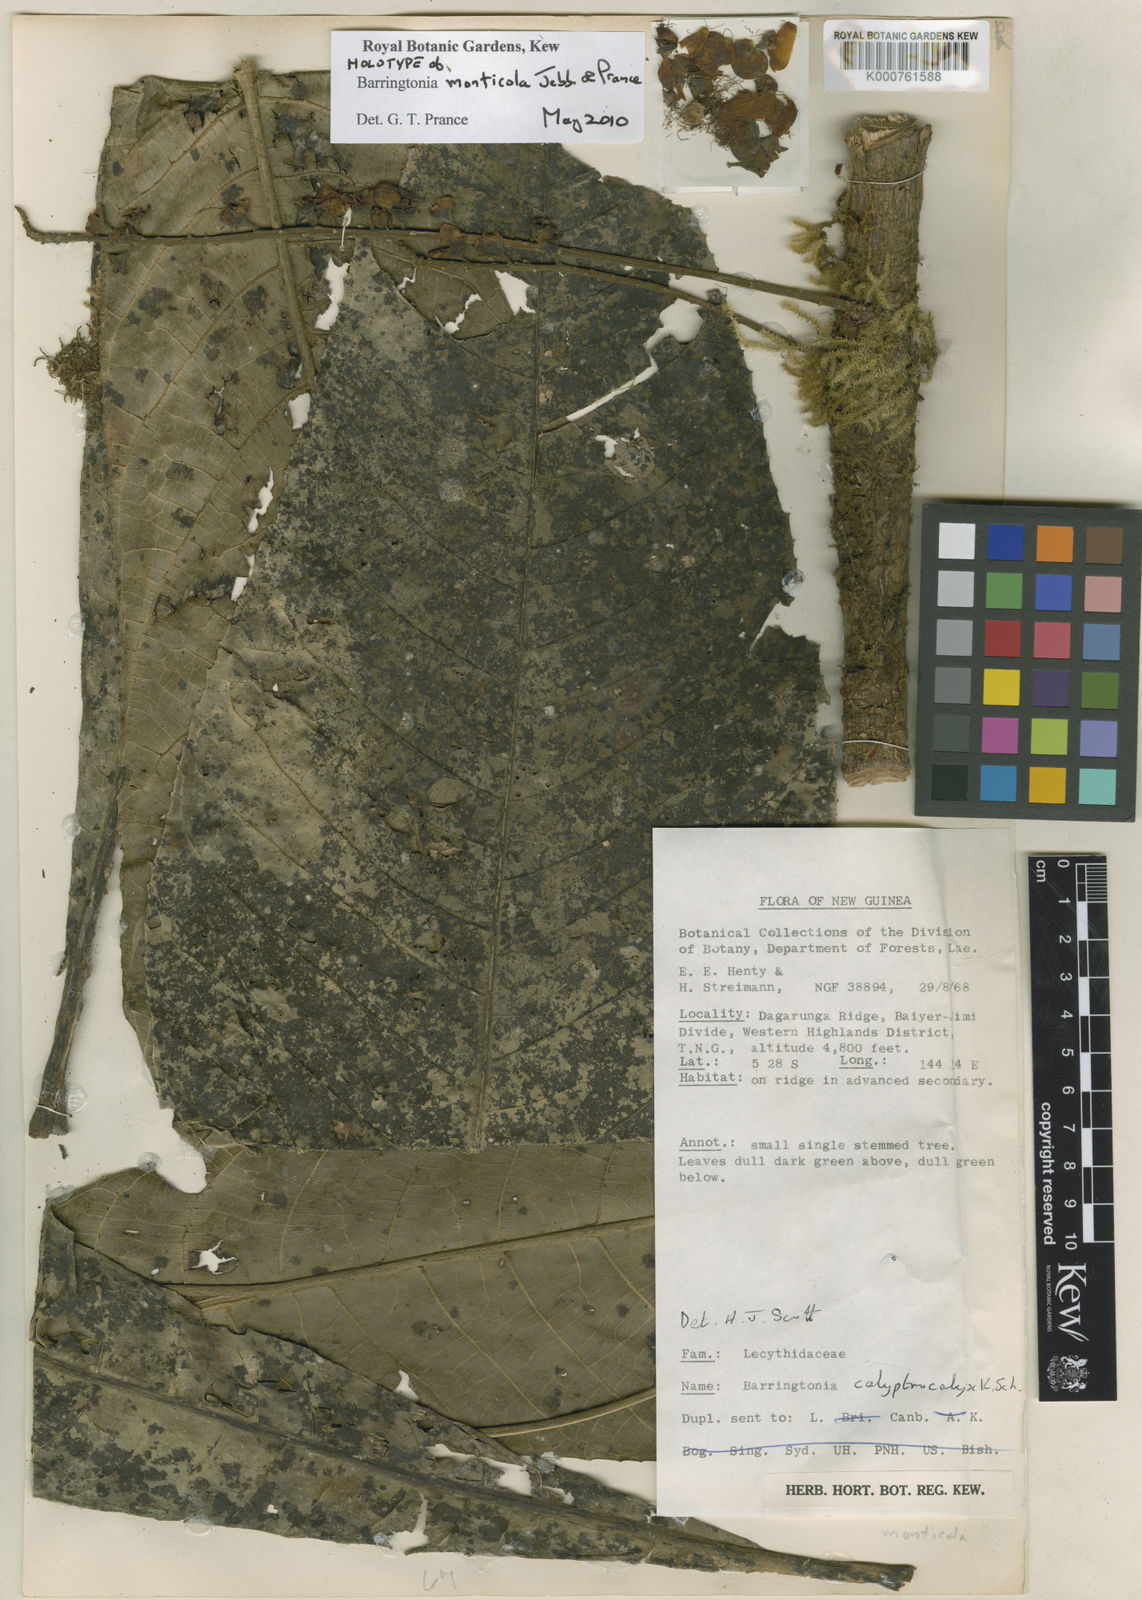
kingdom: Plantae
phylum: Tracheophyta
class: Magnoliopsida
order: Ericales
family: Lecythidaceae
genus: Barringtonia
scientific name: Barringtonia monticola
